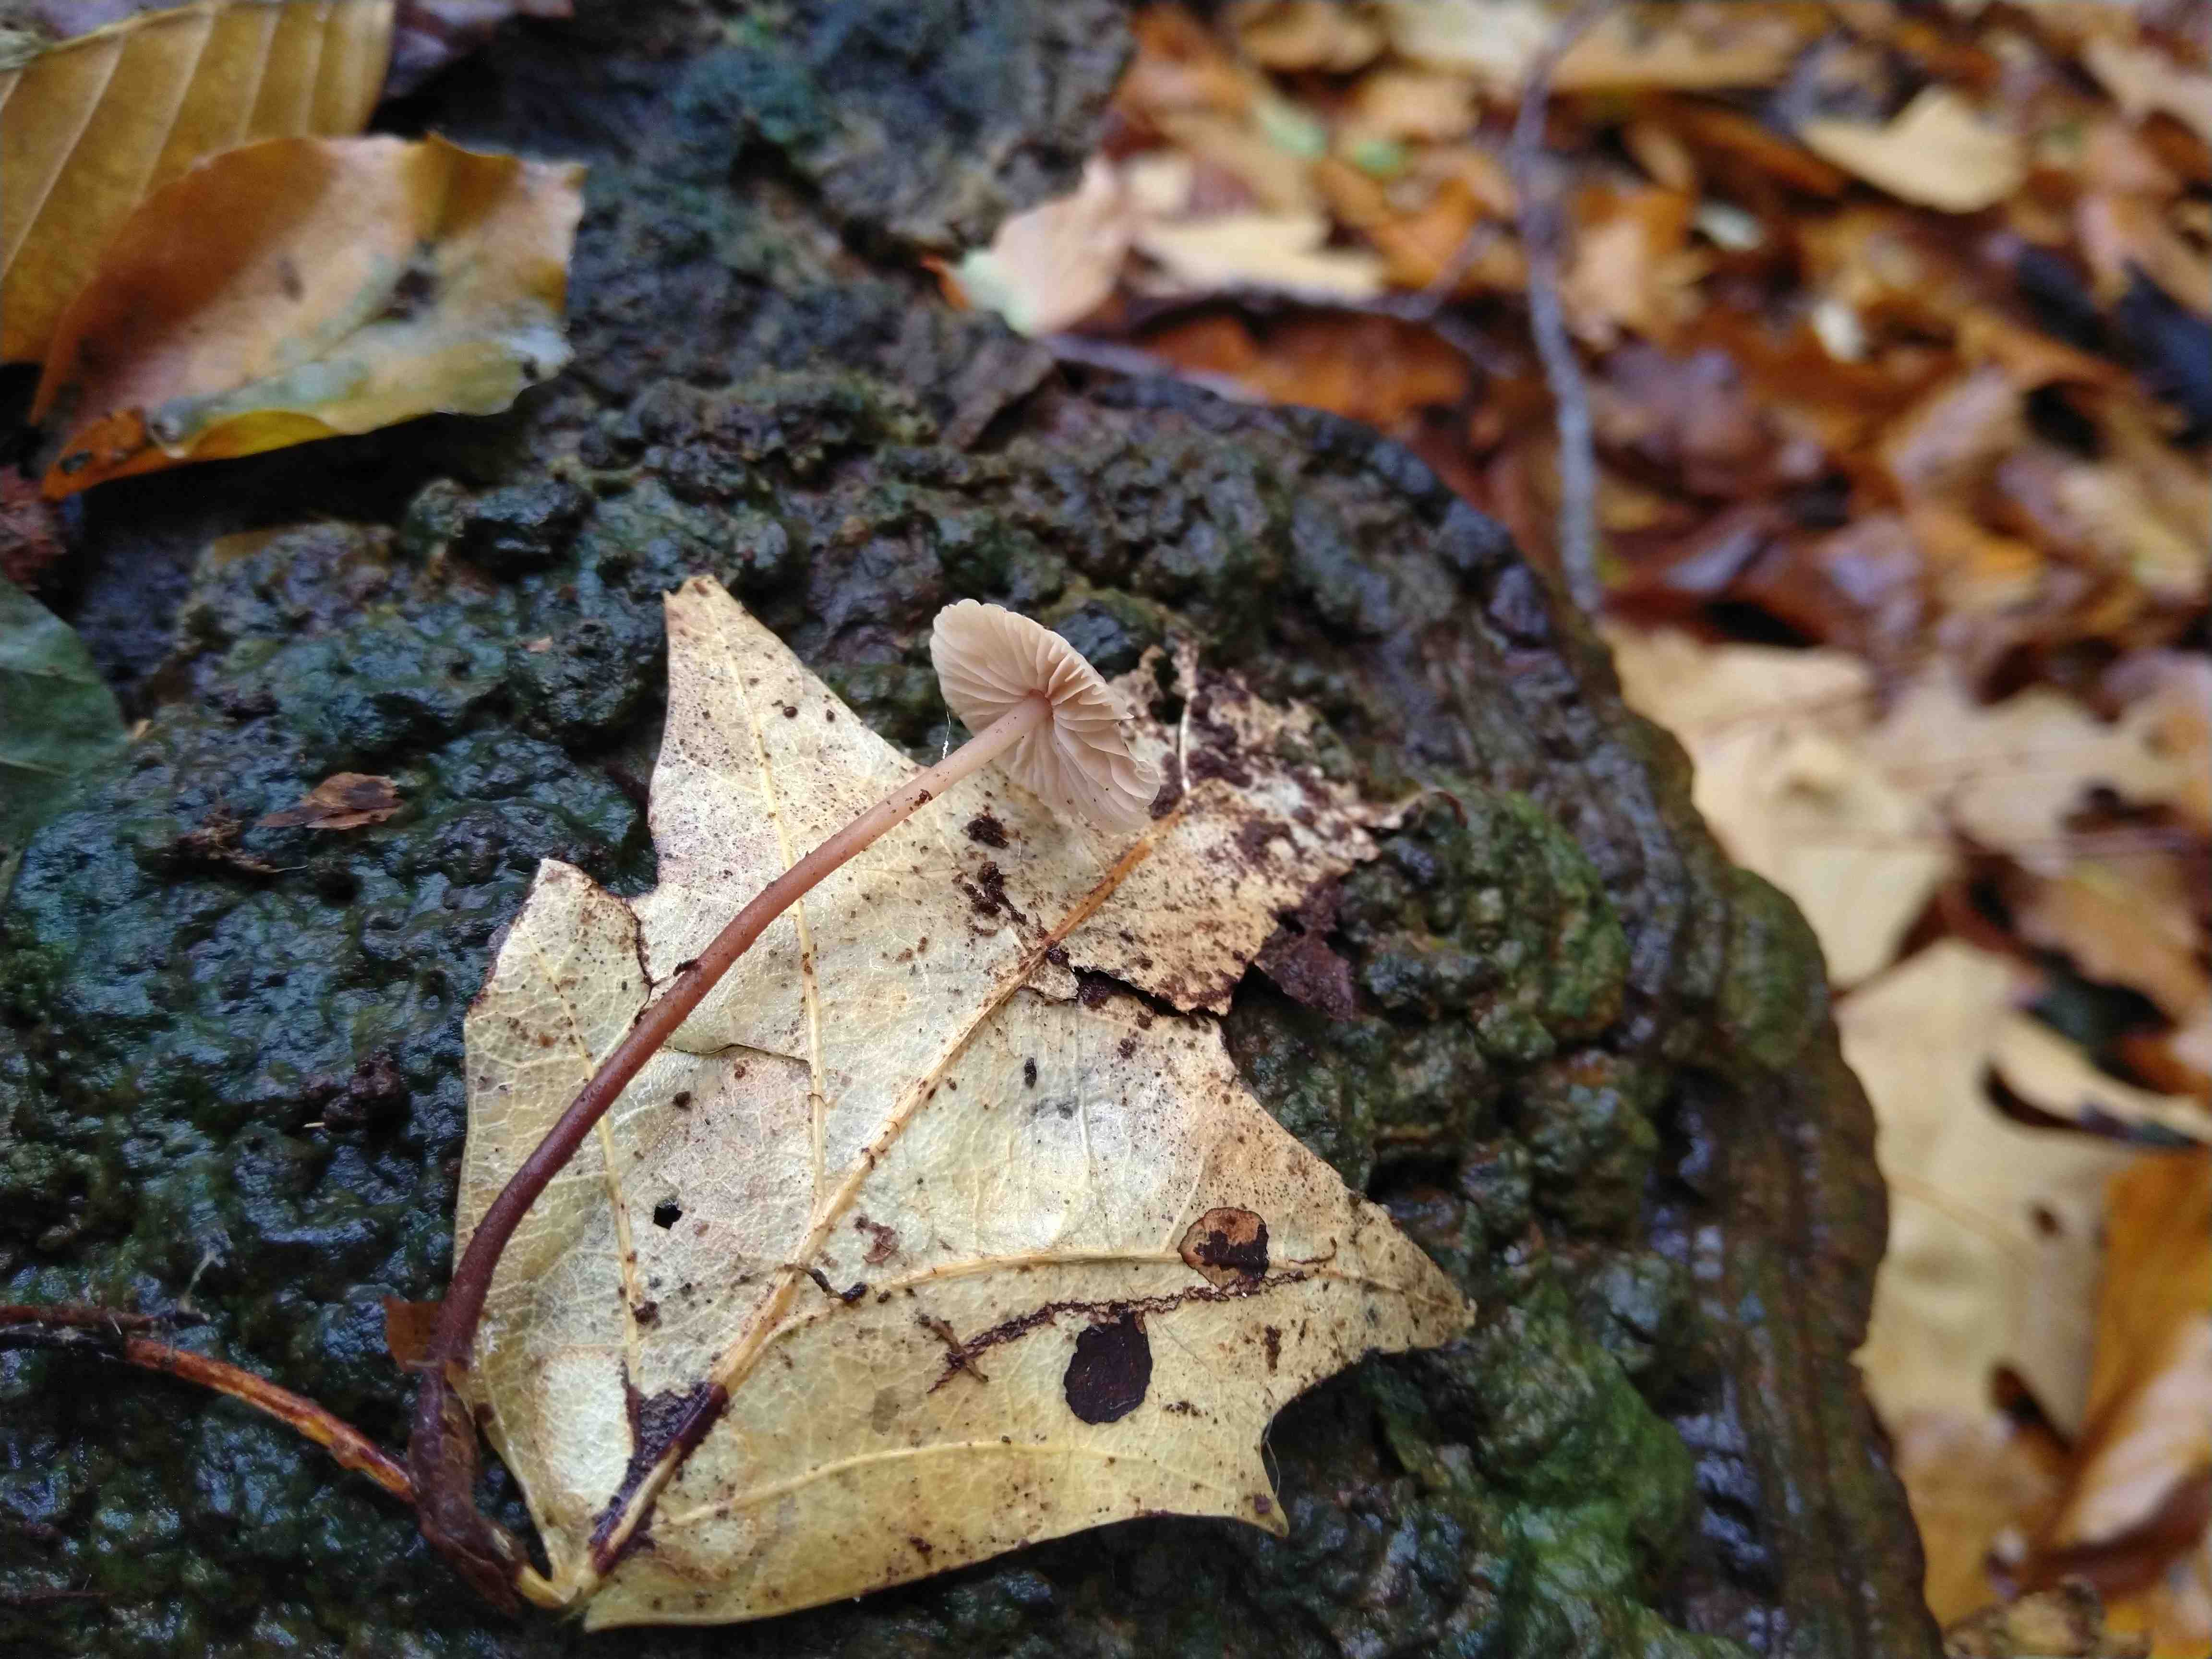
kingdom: Fungi
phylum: Basidiomycota
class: Agaricomycetes
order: Agaricales
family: Omphalotaceae
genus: Mycetinis
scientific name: Mycetinis querceus
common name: ege-løghat
